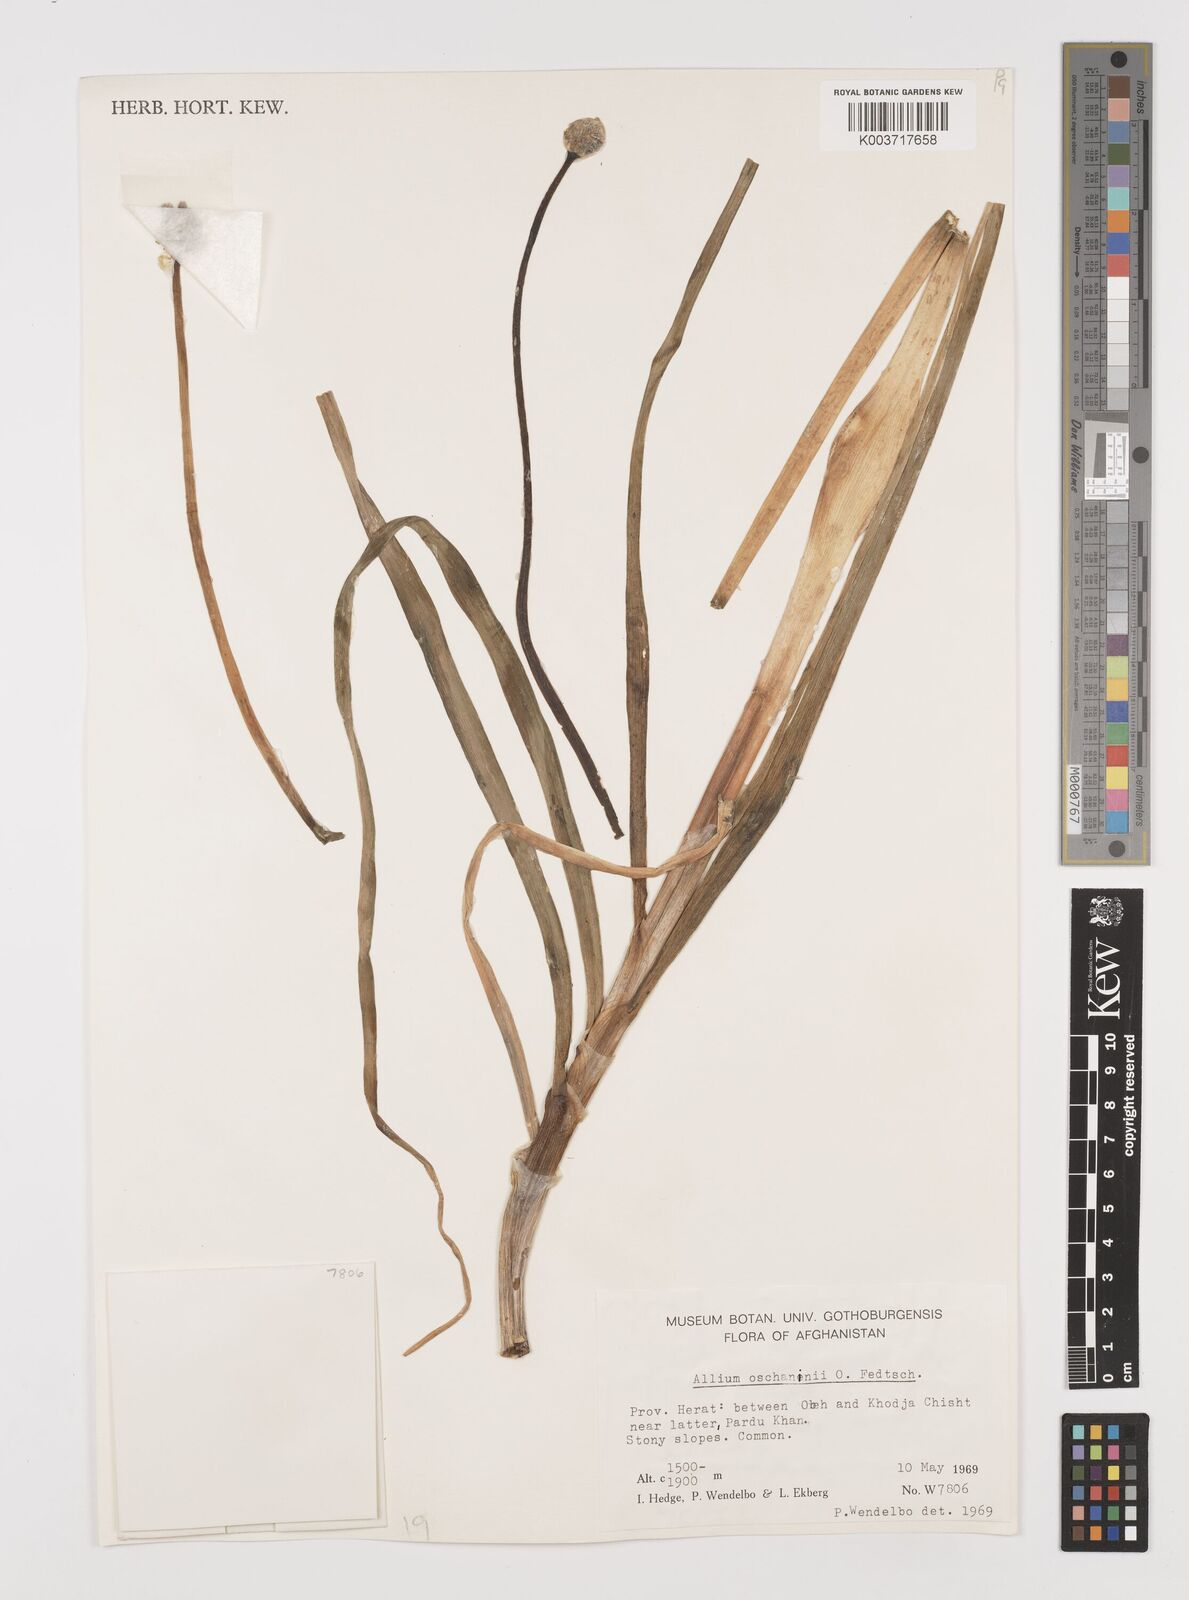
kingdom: Plantae
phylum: Tracheophyta
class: Liliopsida
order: Asparagales
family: Amaryllidaceae
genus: Allium
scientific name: Allium oschaninii
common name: French grey shallot
